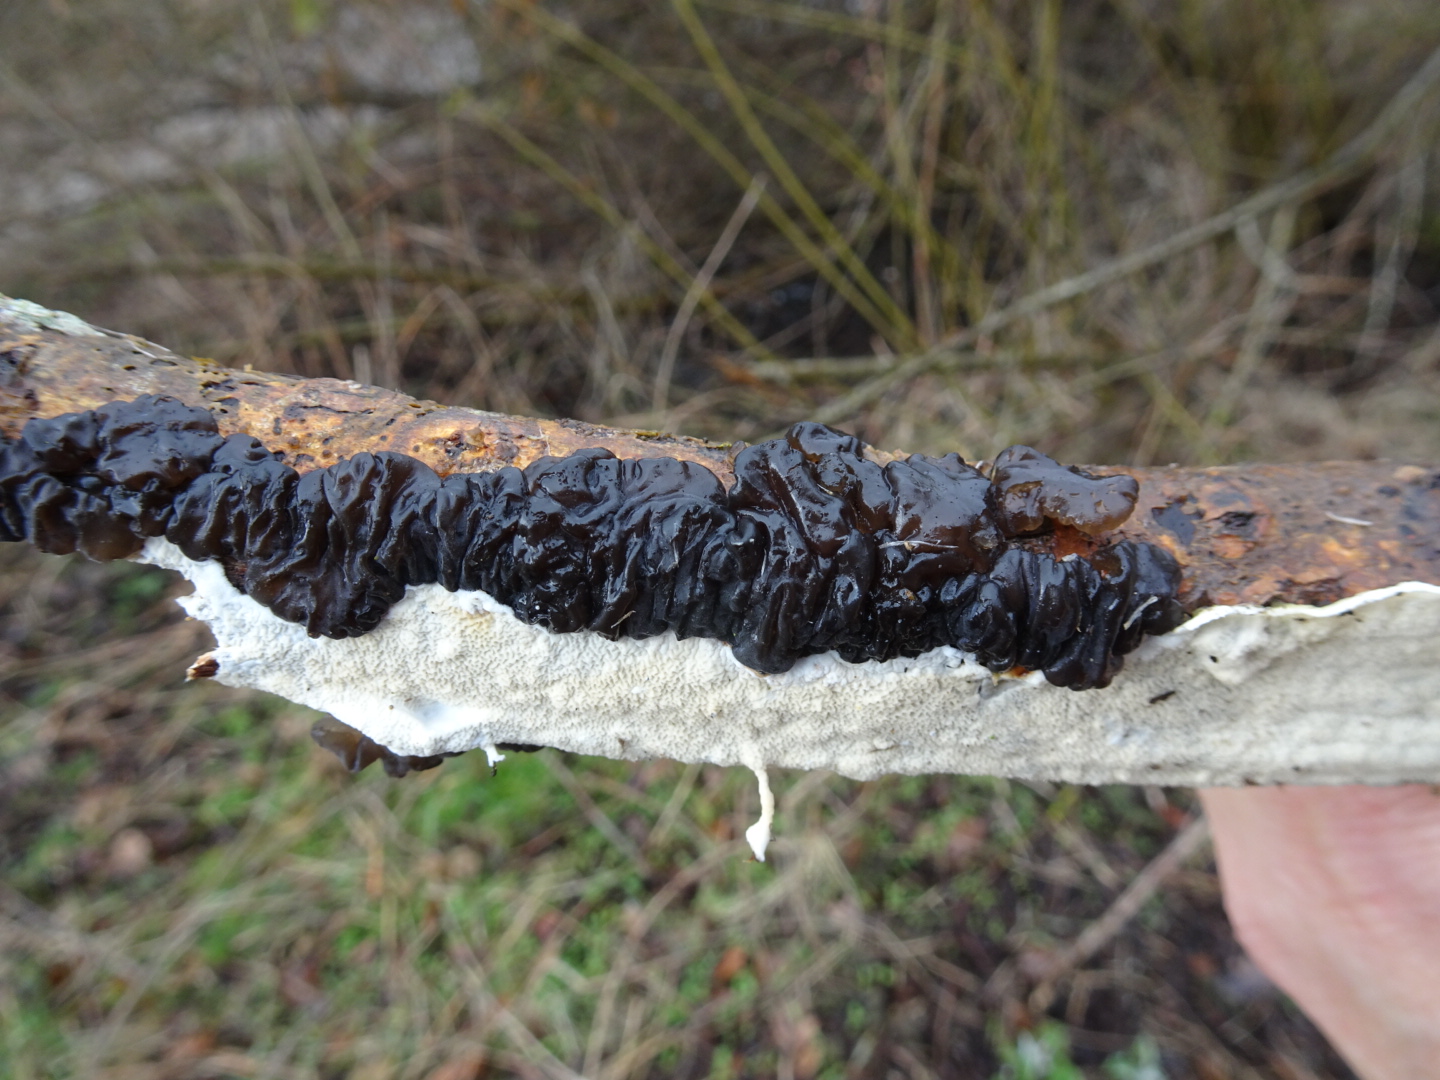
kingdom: Fungi
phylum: Basidiomycota
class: Agaricomycetes
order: Auriculariales
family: Auriculariaceae
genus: Exidia
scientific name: Exidia nigricans
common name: almindelig bævretop
